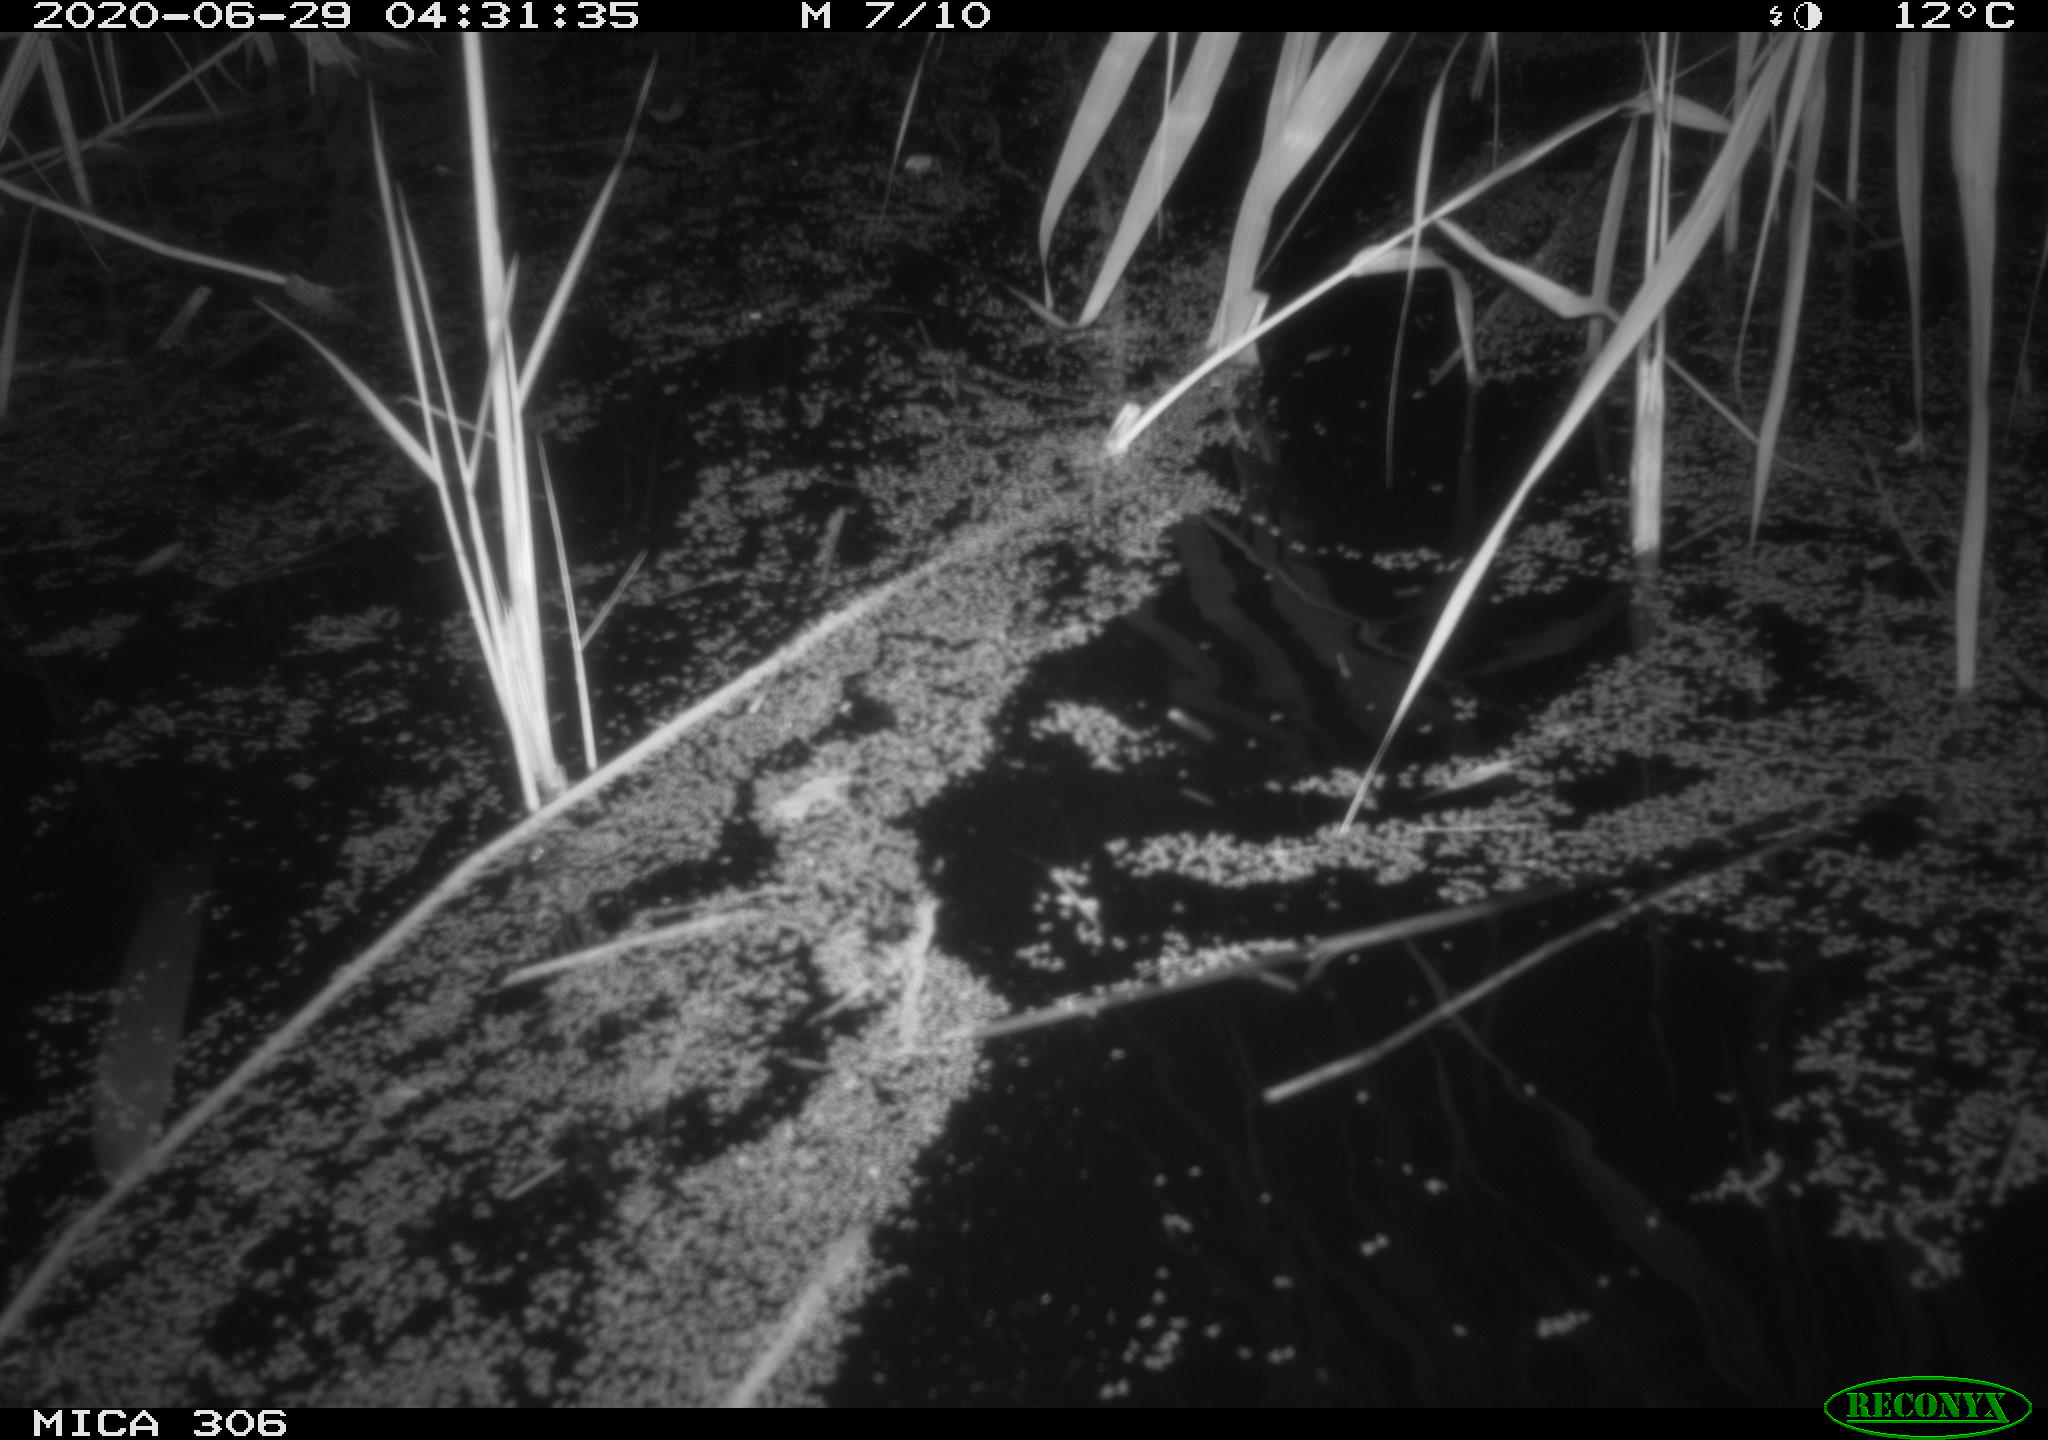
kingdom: Animalia
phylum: Chordata
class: Mammalia
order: Rodentia
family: Muridae
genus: Rattus
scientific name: Rattus norvegicus
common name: Brown rat
